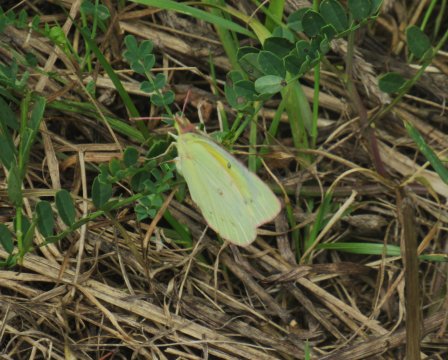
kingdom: Animalia
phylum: Arthropoda
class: Insecta
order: Lepidoptera
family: Pieridae
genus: Colias
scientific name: Colias philodice
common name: Clouded Sulphur
